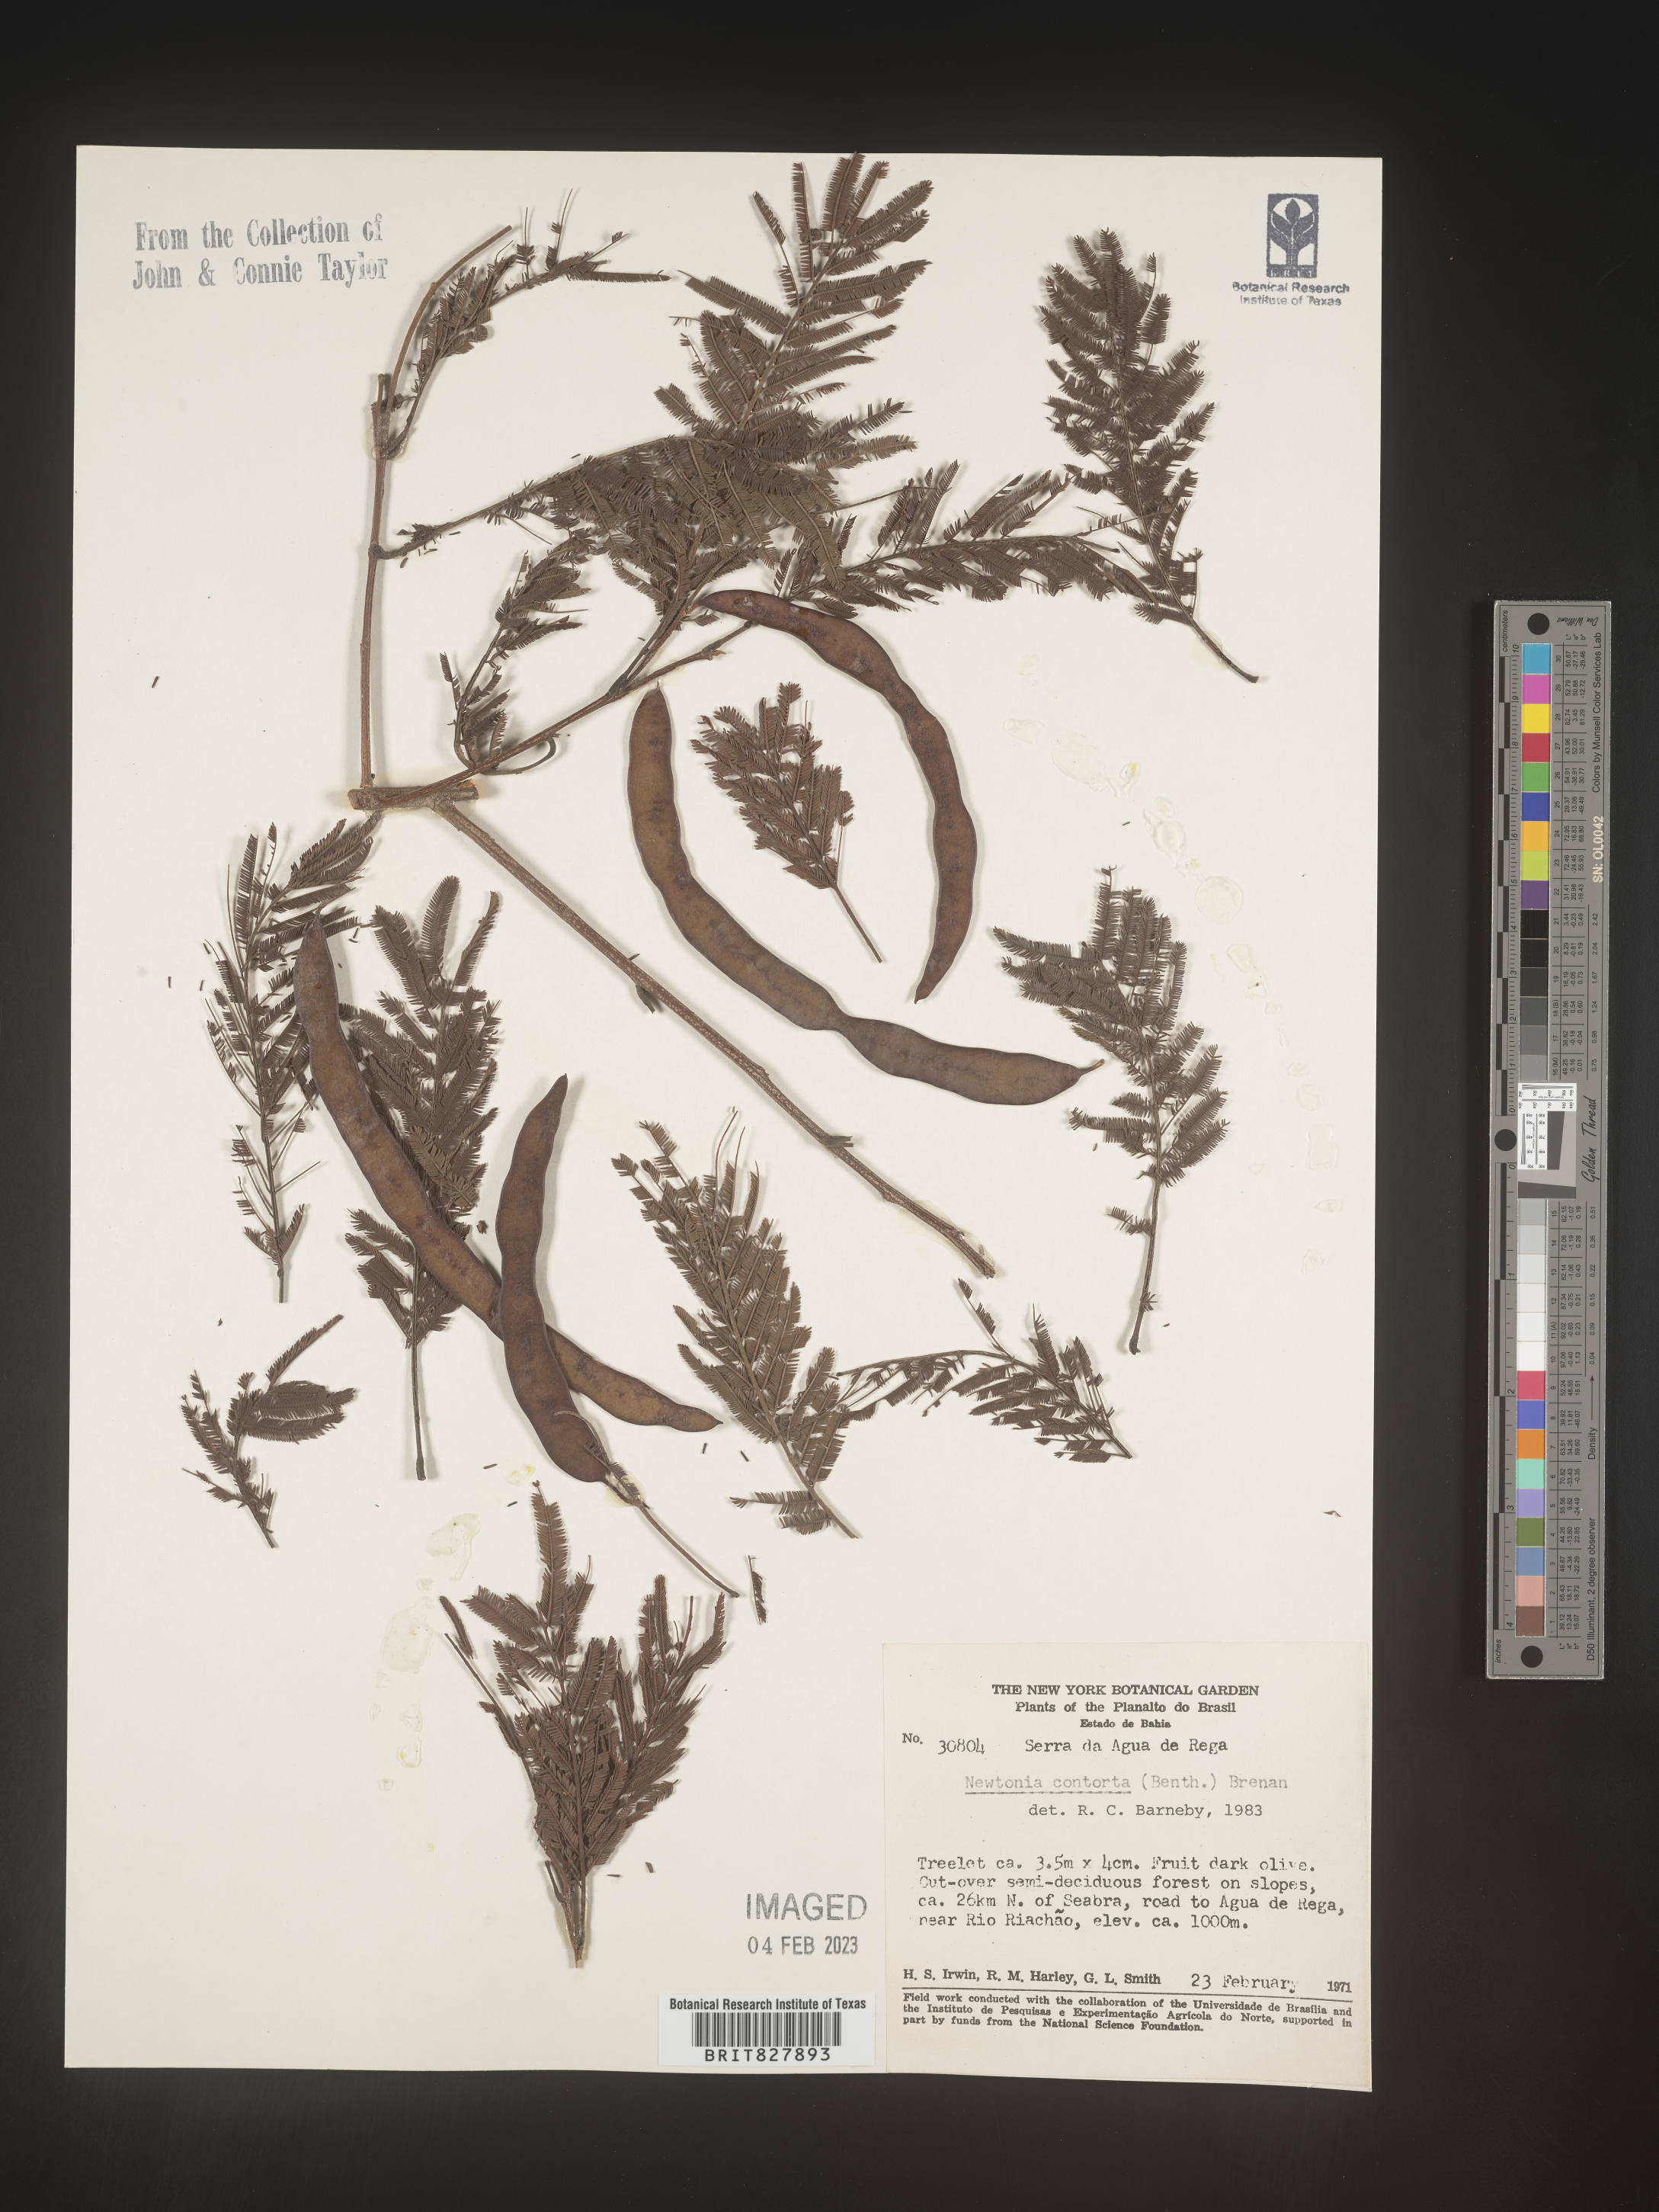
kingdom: Plantae
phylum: Tracheophyta
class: Magnoliopsida
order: Fabales
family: Fabaceae
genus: Newtonia
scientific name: Newtonia
